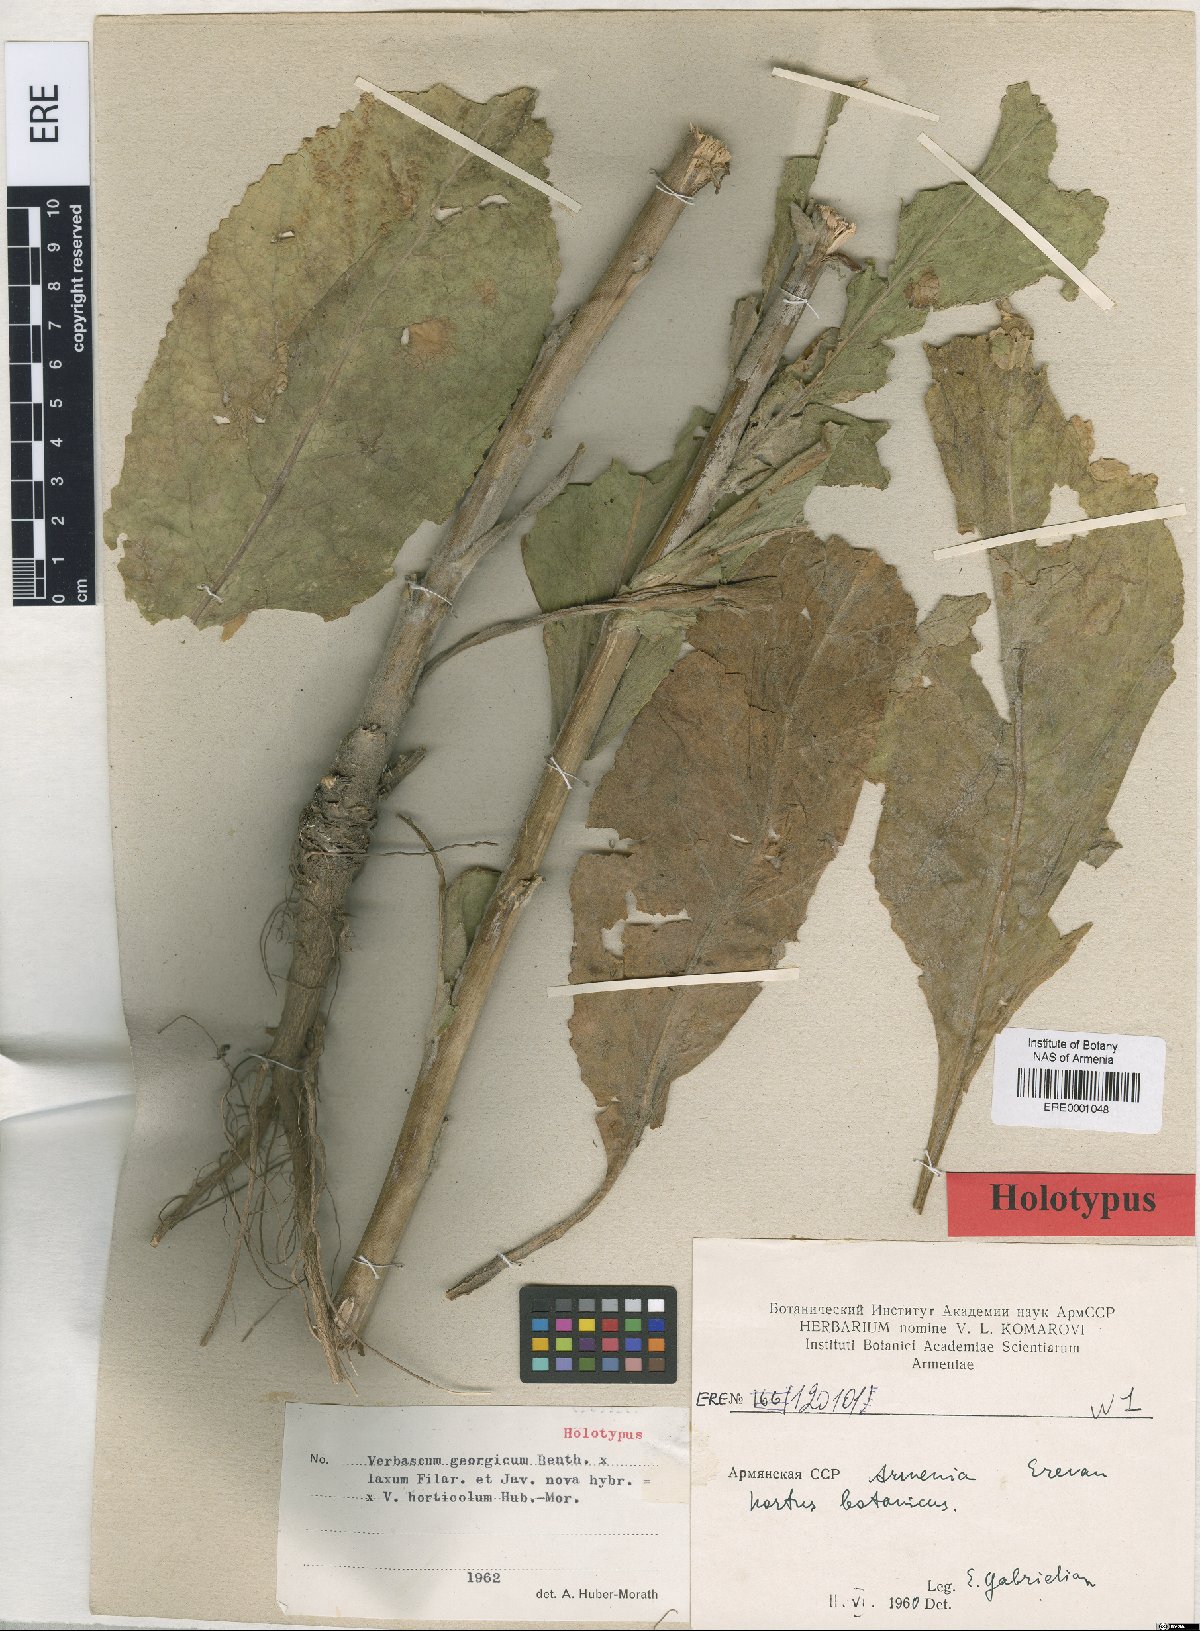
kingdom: Plantae
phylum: Tracheophyta
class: Magnoliopsida
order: Lamiales
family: Scrophulariaceae
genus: Verbascum
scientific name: Verbascum horticola
